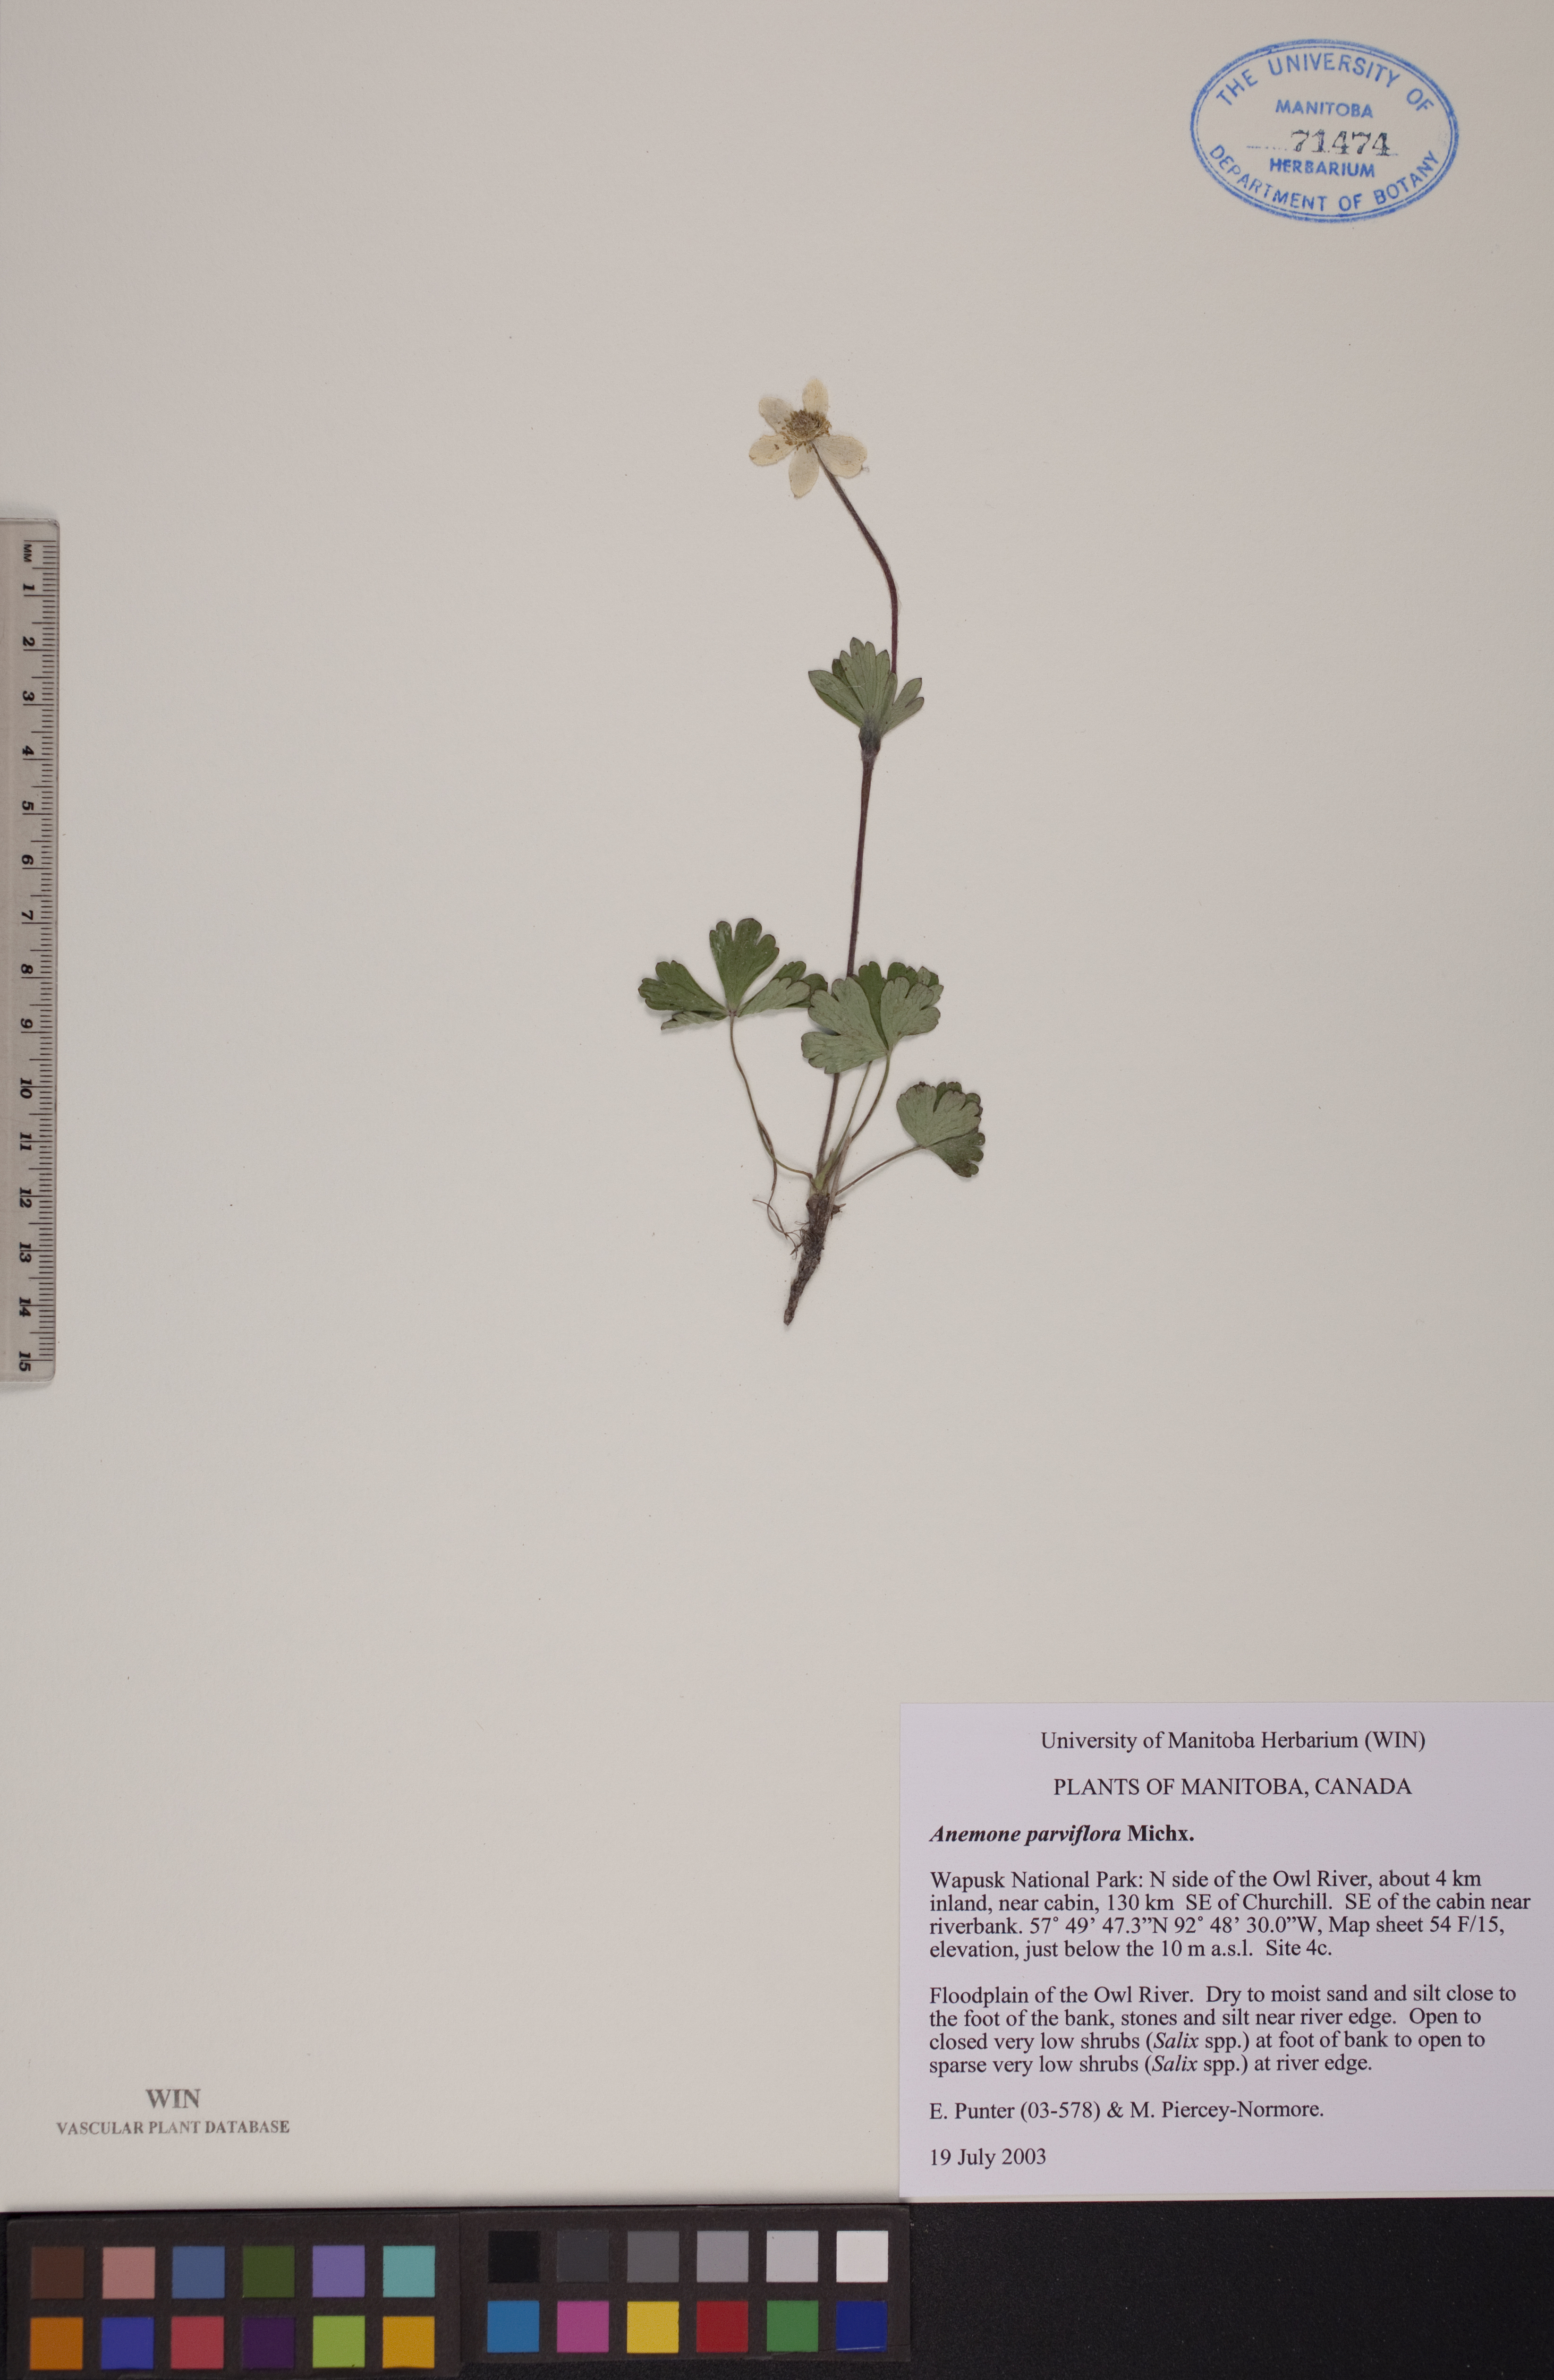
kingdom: Plantae
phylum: Tracheophyta
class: Magnoliopsida
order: Ranunculales
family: Ranunculaceae
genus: Anemone
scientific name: Anemone parviflora
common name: Northern anemone
